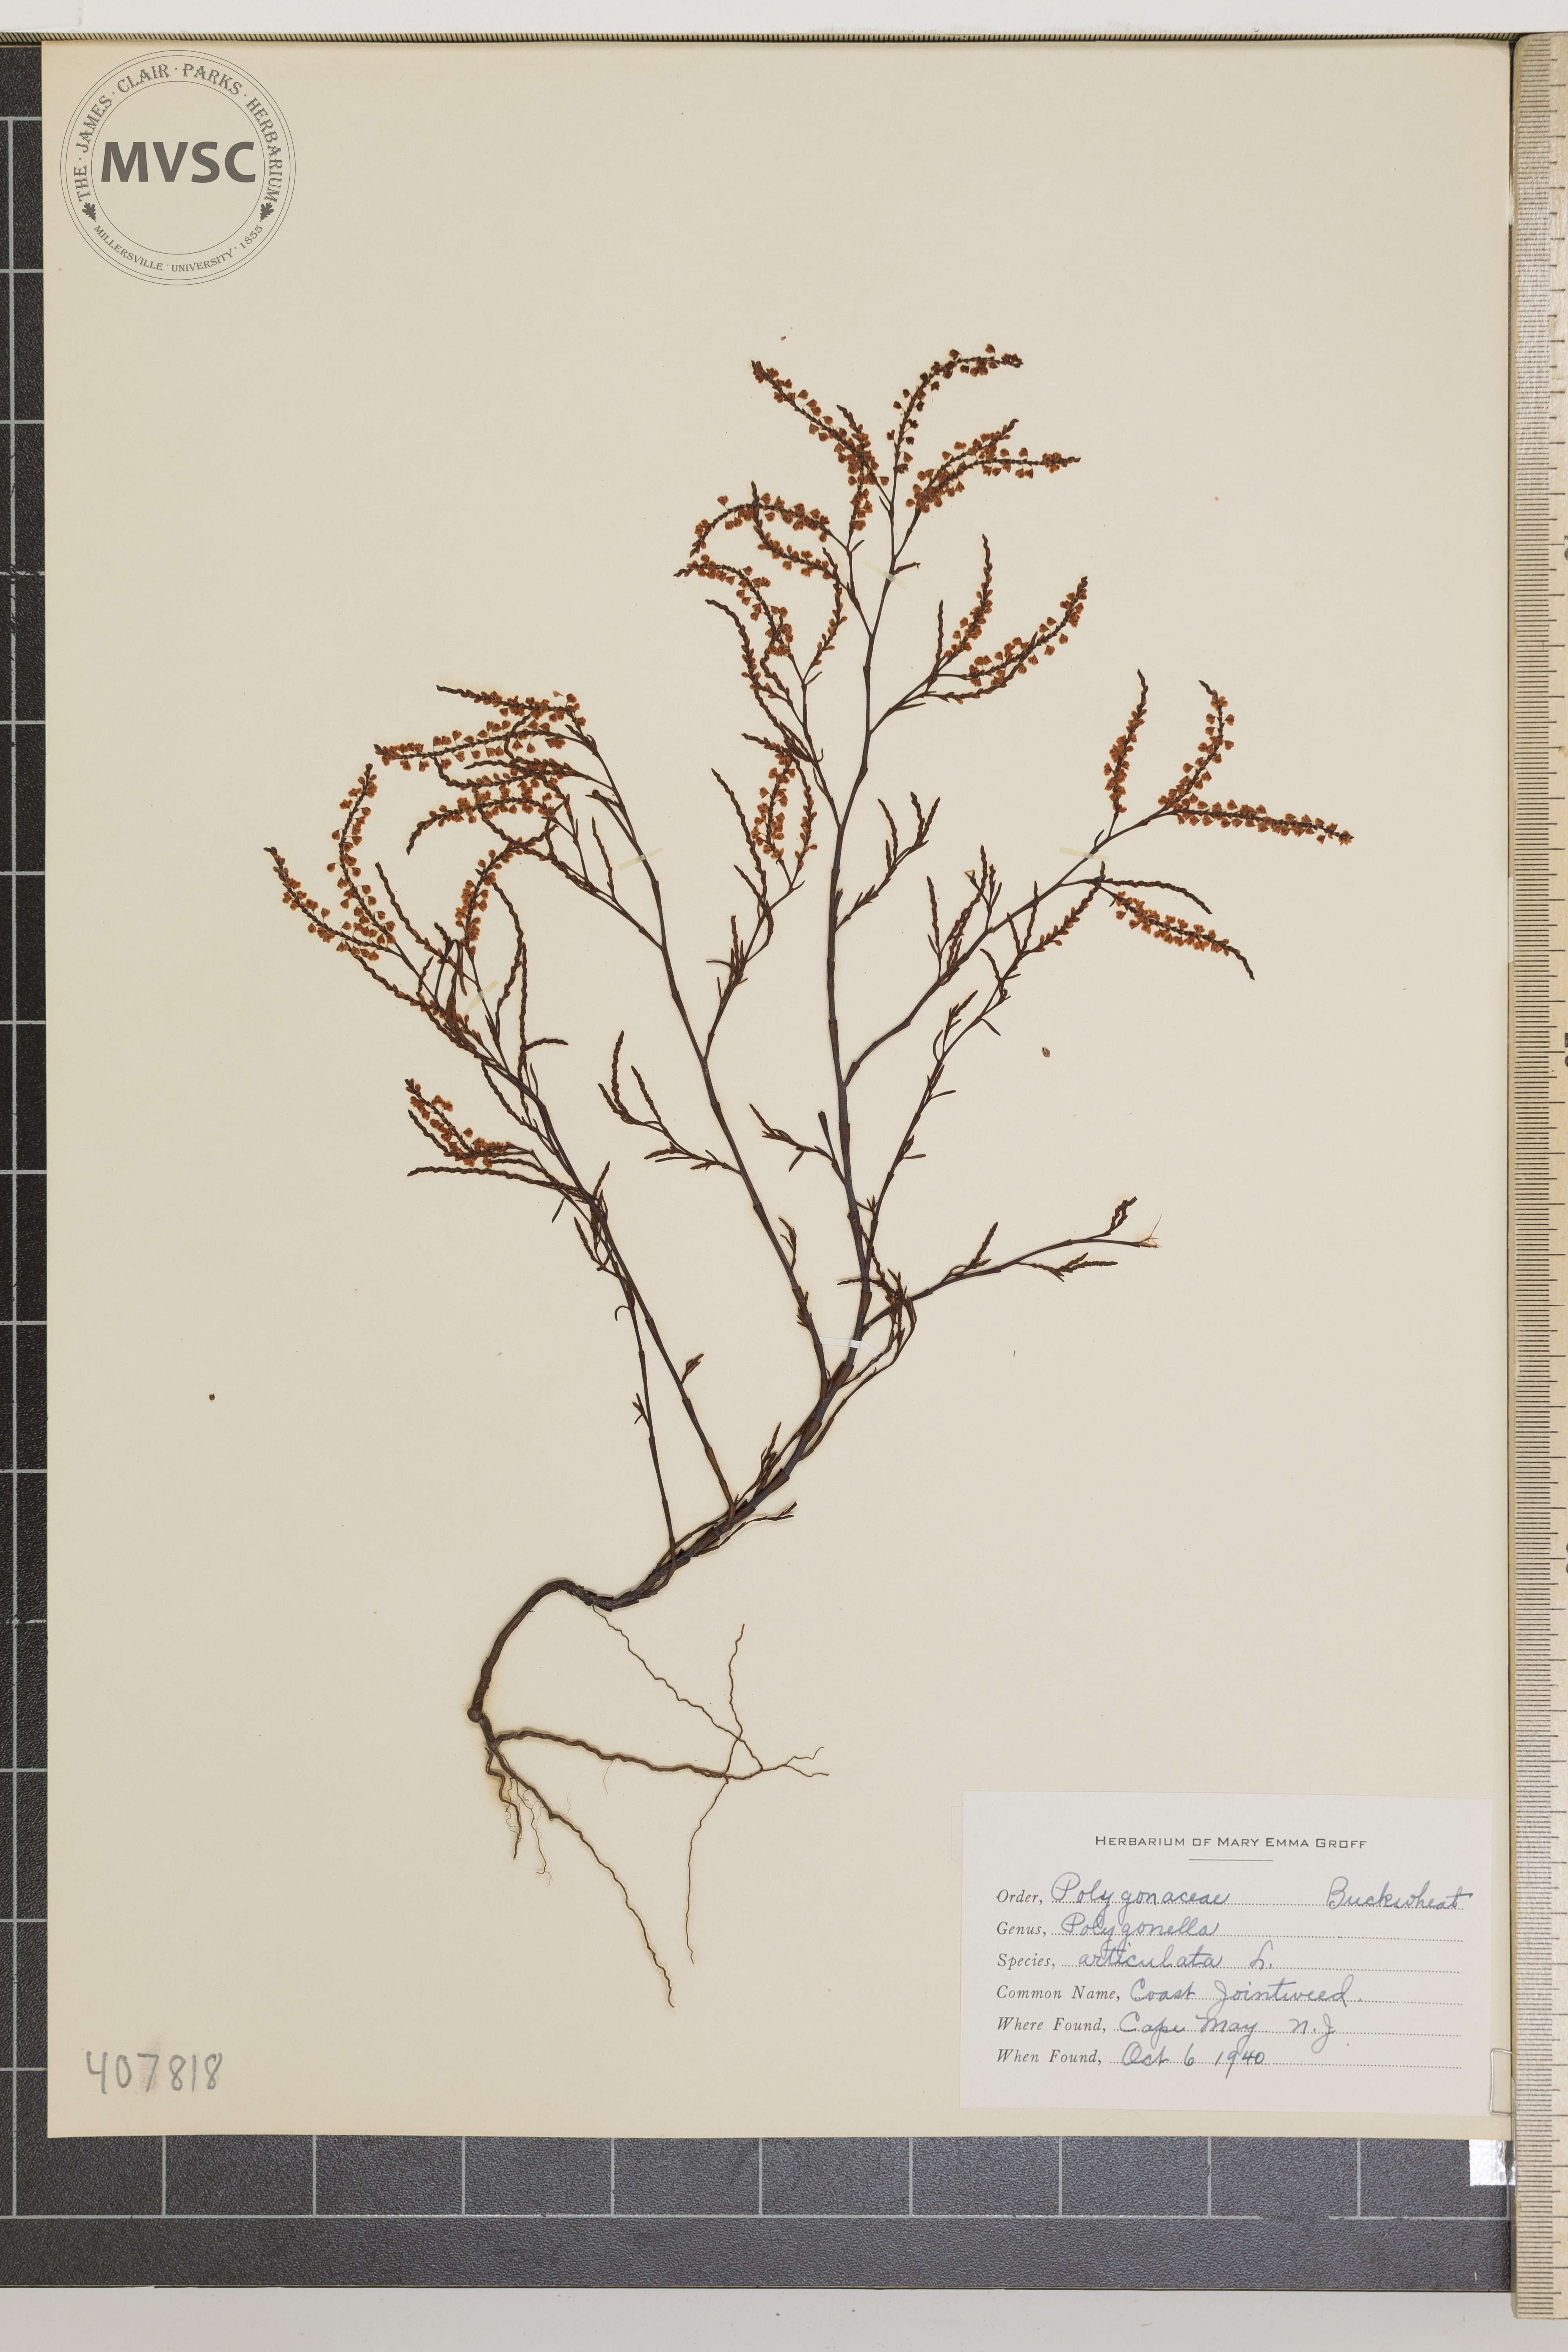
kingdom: Plantae
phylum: Tracheophyta
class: Magnoliopsida
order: Caryophyllales
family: Polygonaceae
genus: Polygonella
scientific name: Polygonella articulata
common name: Coast Jointweed
